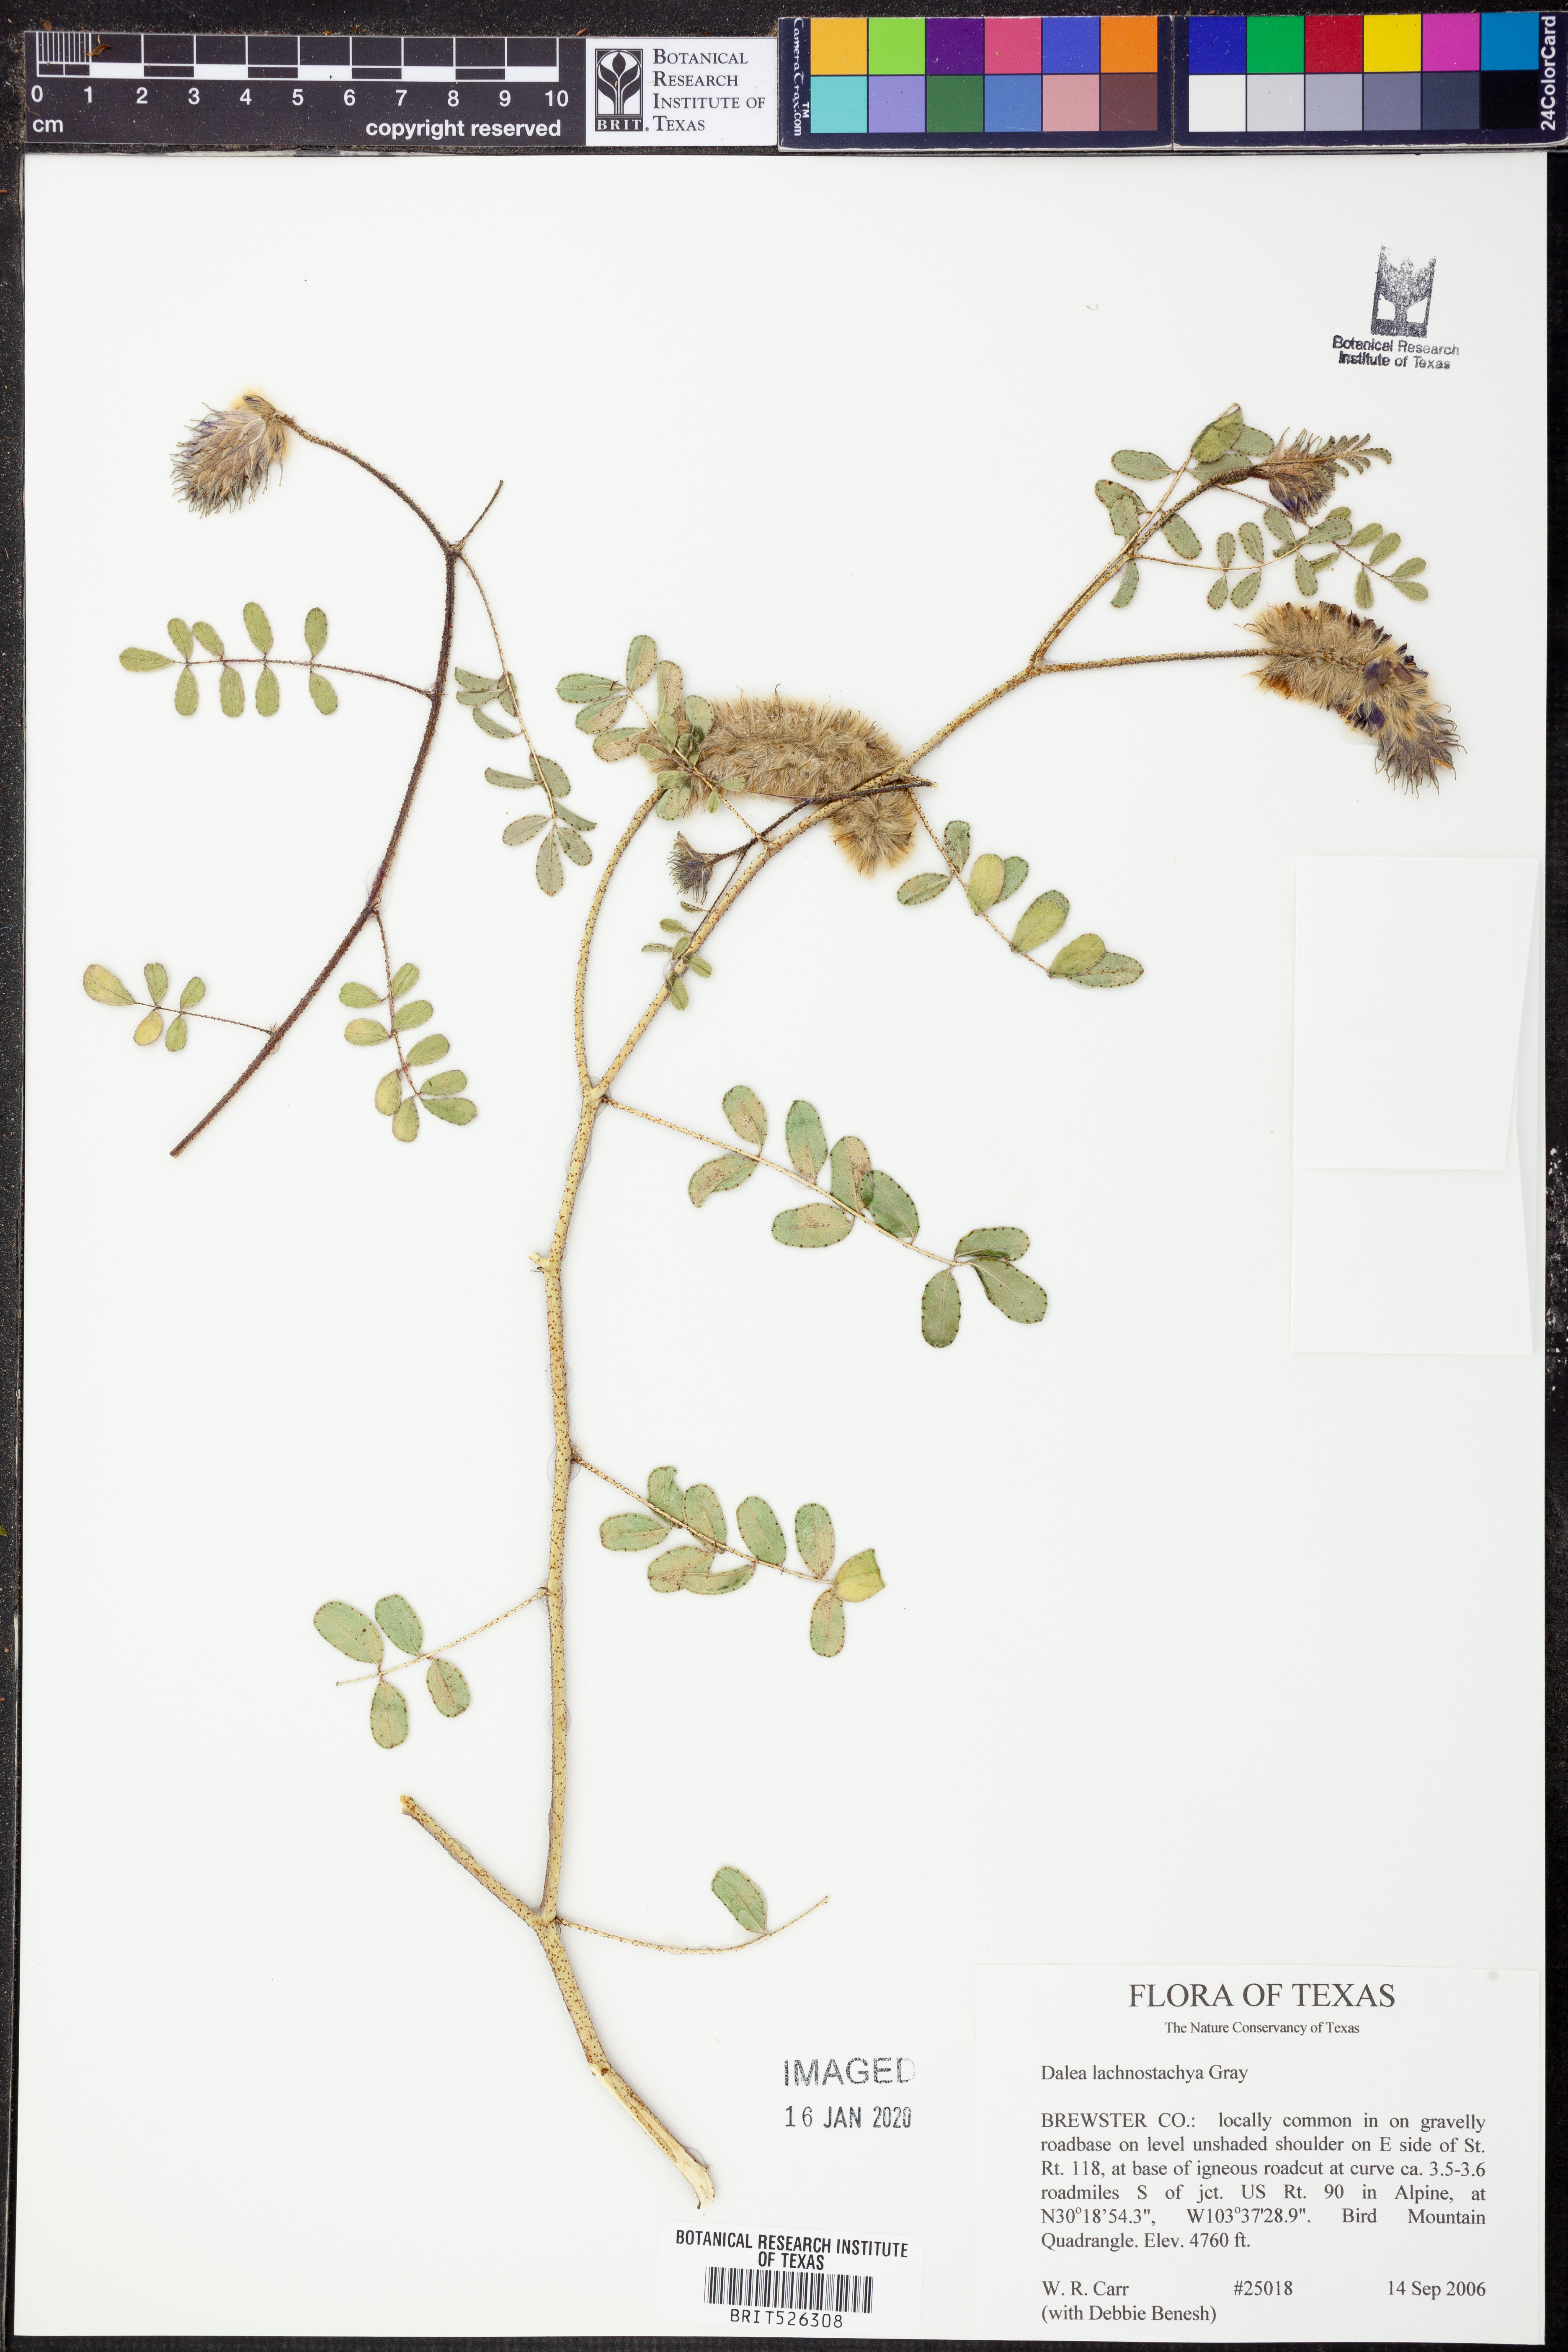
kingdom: Plantae
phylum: Tracheophyta
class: Magnoliopsida
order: Fabales
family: Fabaceae
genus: Dalea
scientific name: Dalea lachnostachys
